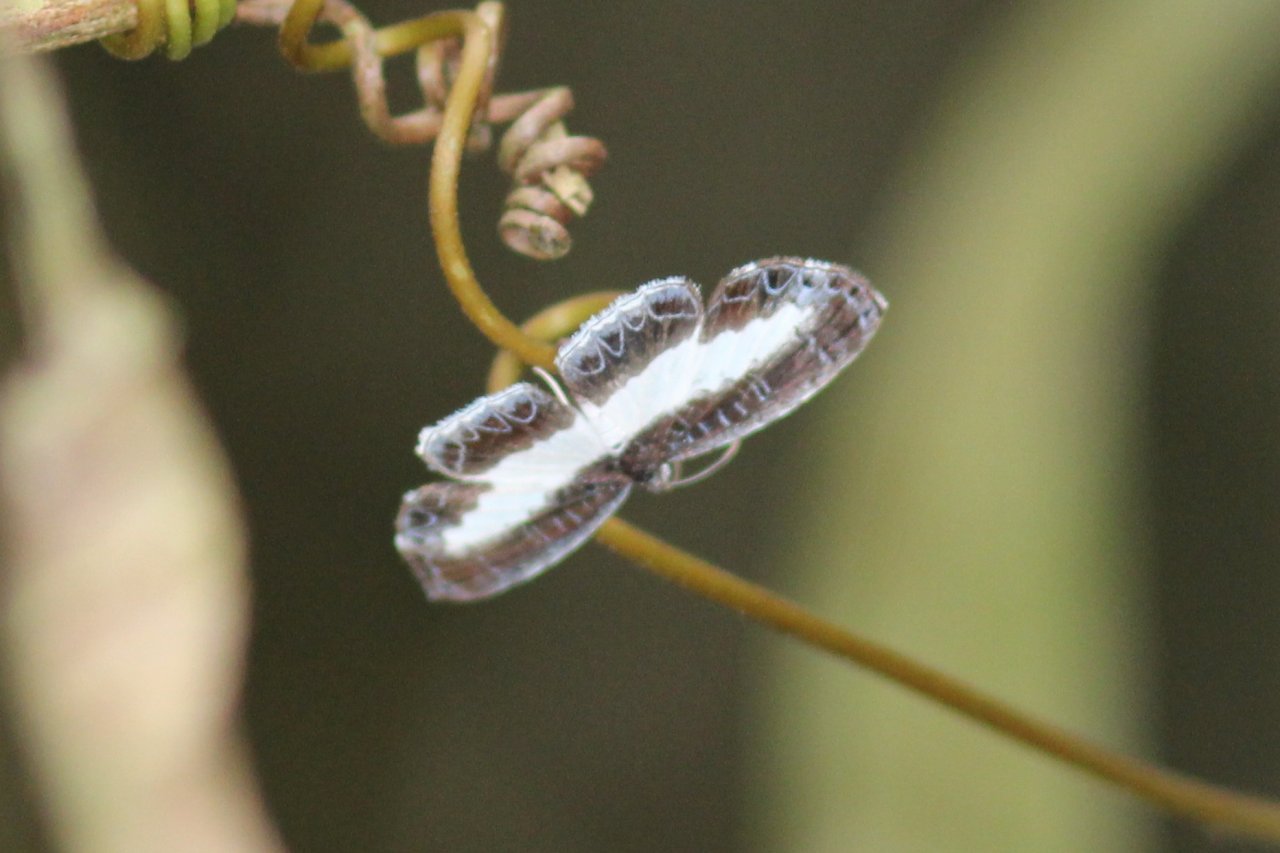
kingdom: Animalia
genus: Nymphidium
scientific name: Nymphidium olinda
